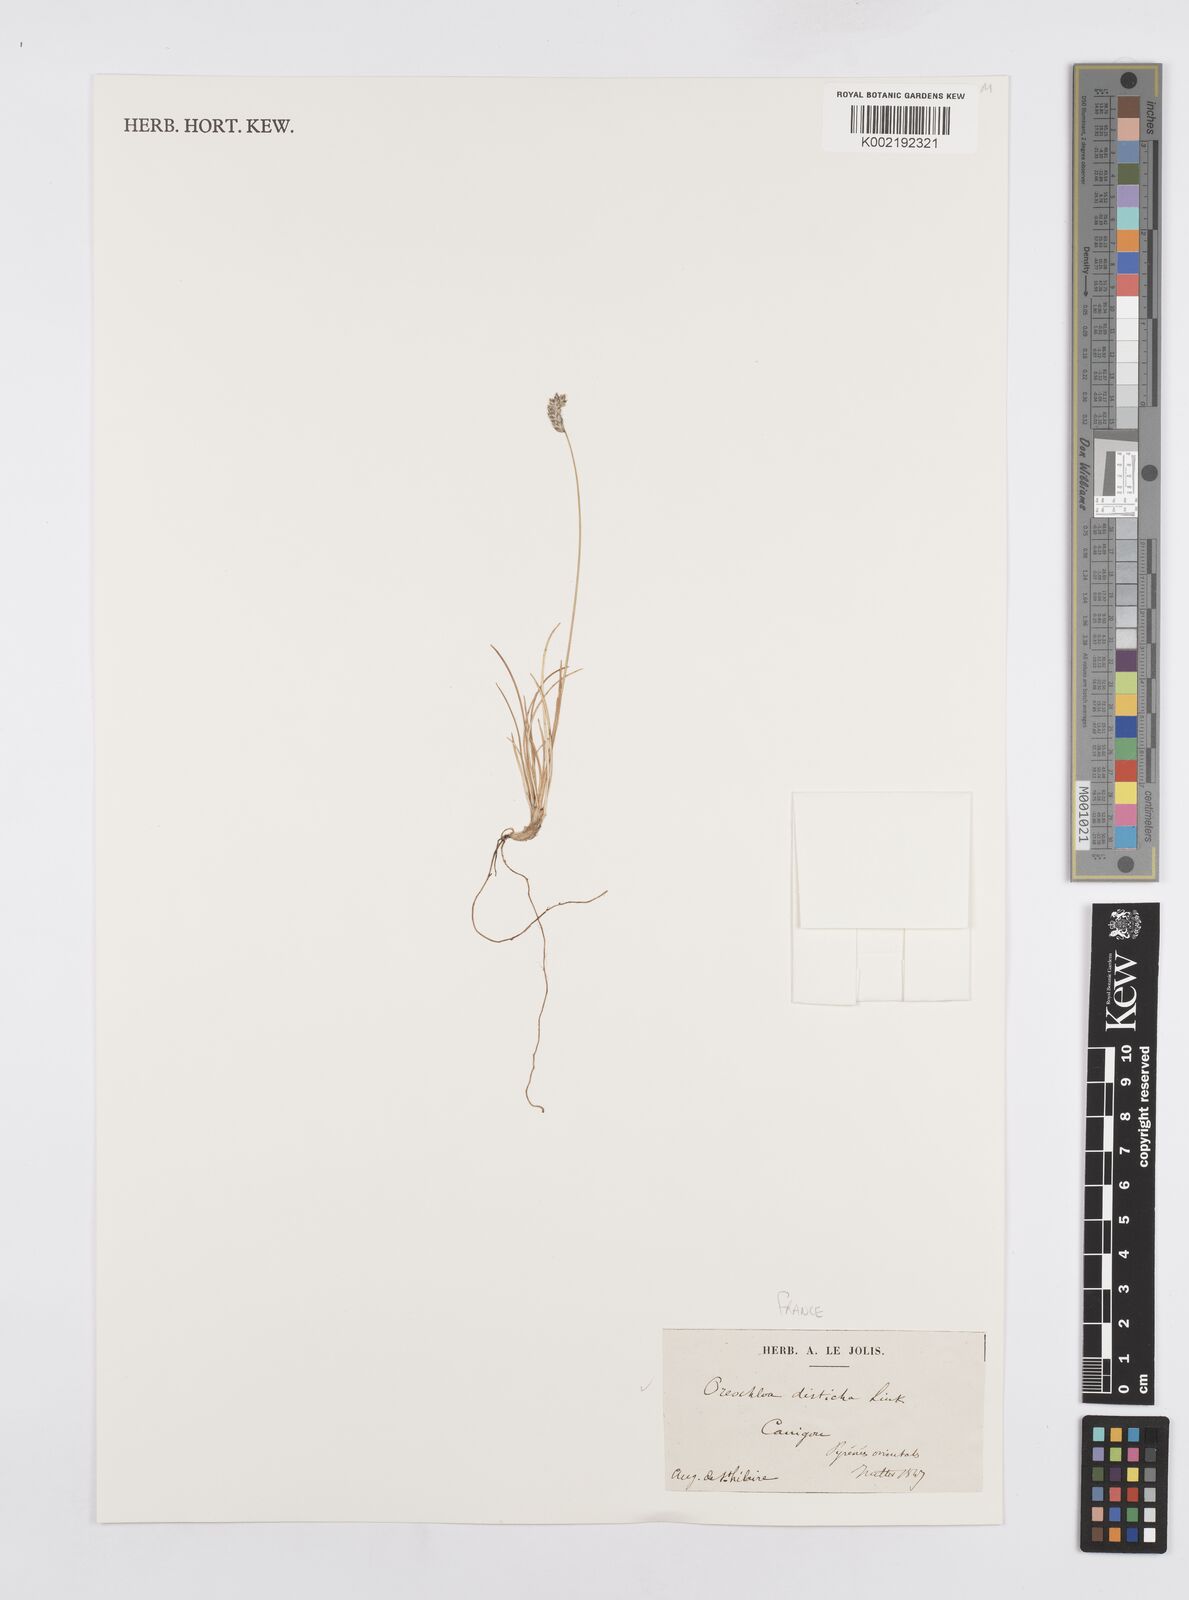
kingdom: Plantae
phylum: Tracheophyta
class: Liliopsida
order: Poales
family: Poaceae
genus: Oreochloa
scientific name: Oreochloa disticha
